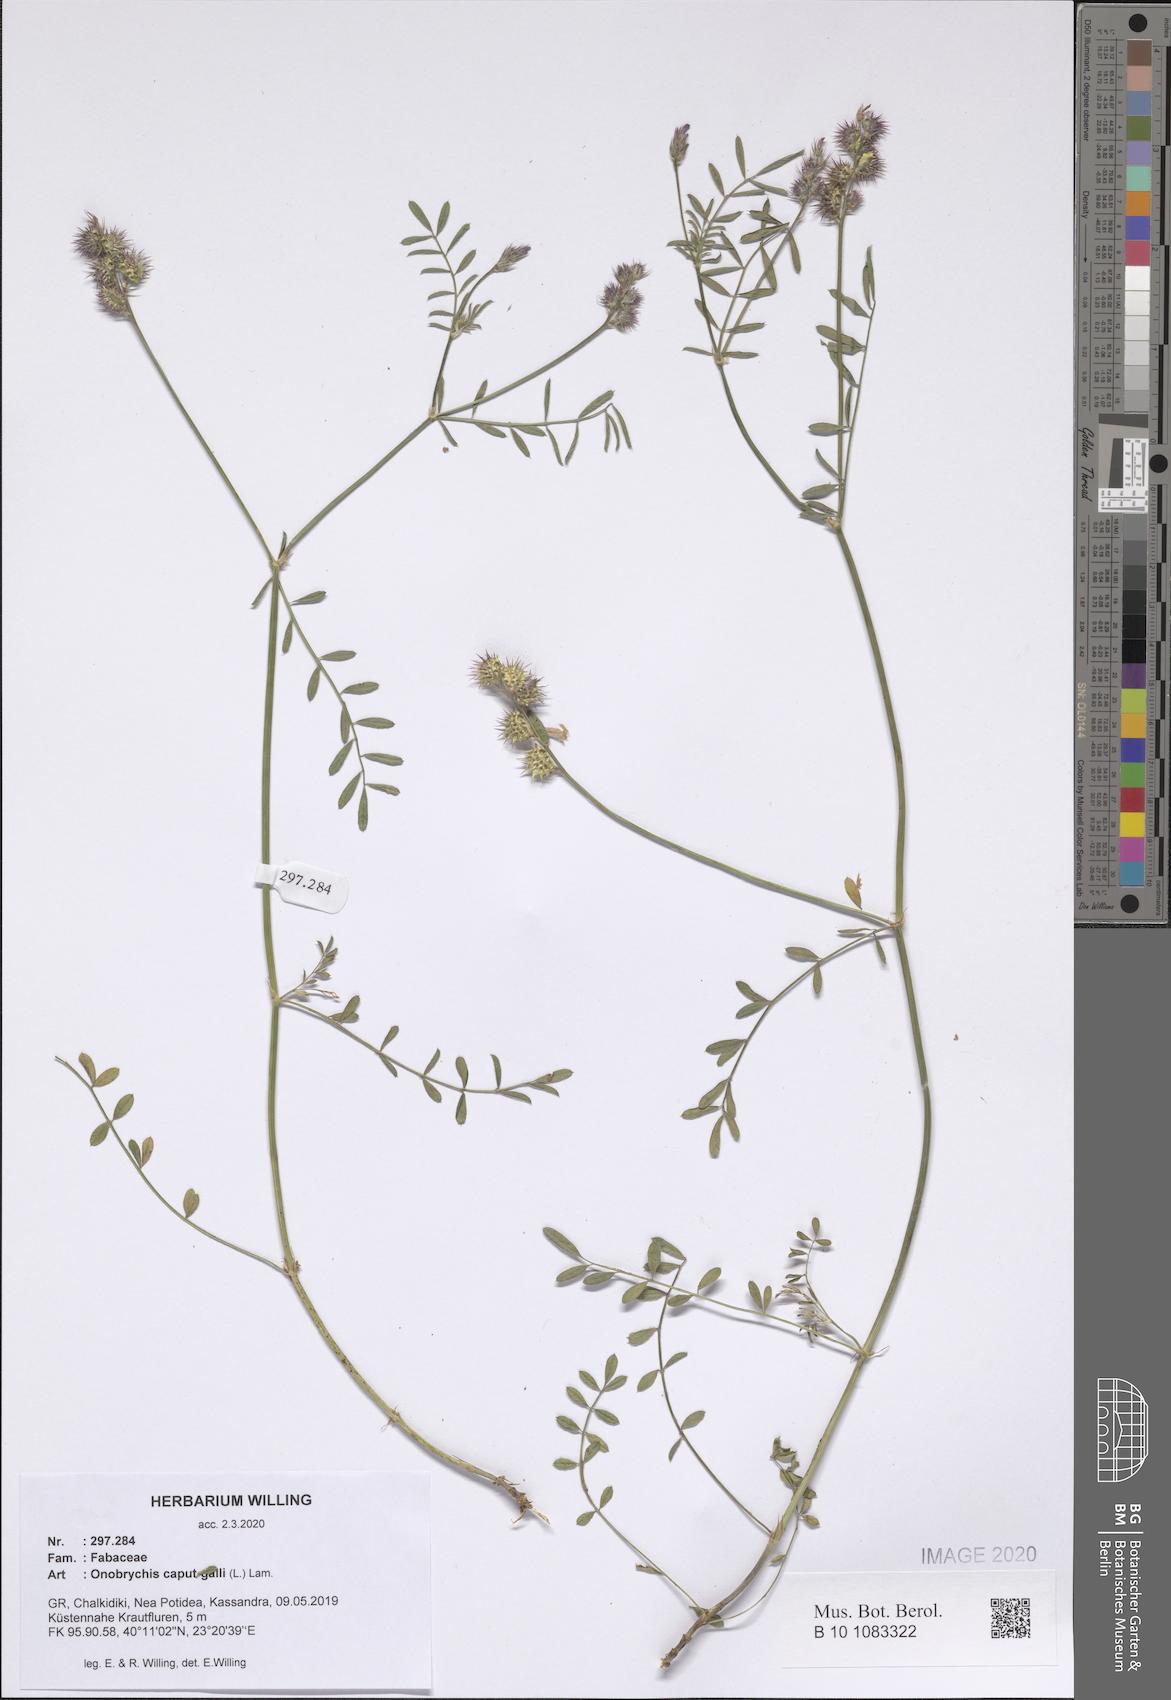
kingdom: Plantae
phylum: Tracheophyta
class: Magnoliopsida
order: Fabales
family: Fabaceae
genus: Onobrychis
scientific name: Onobrychis caput-galli
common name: Cockscomb sainfoin
